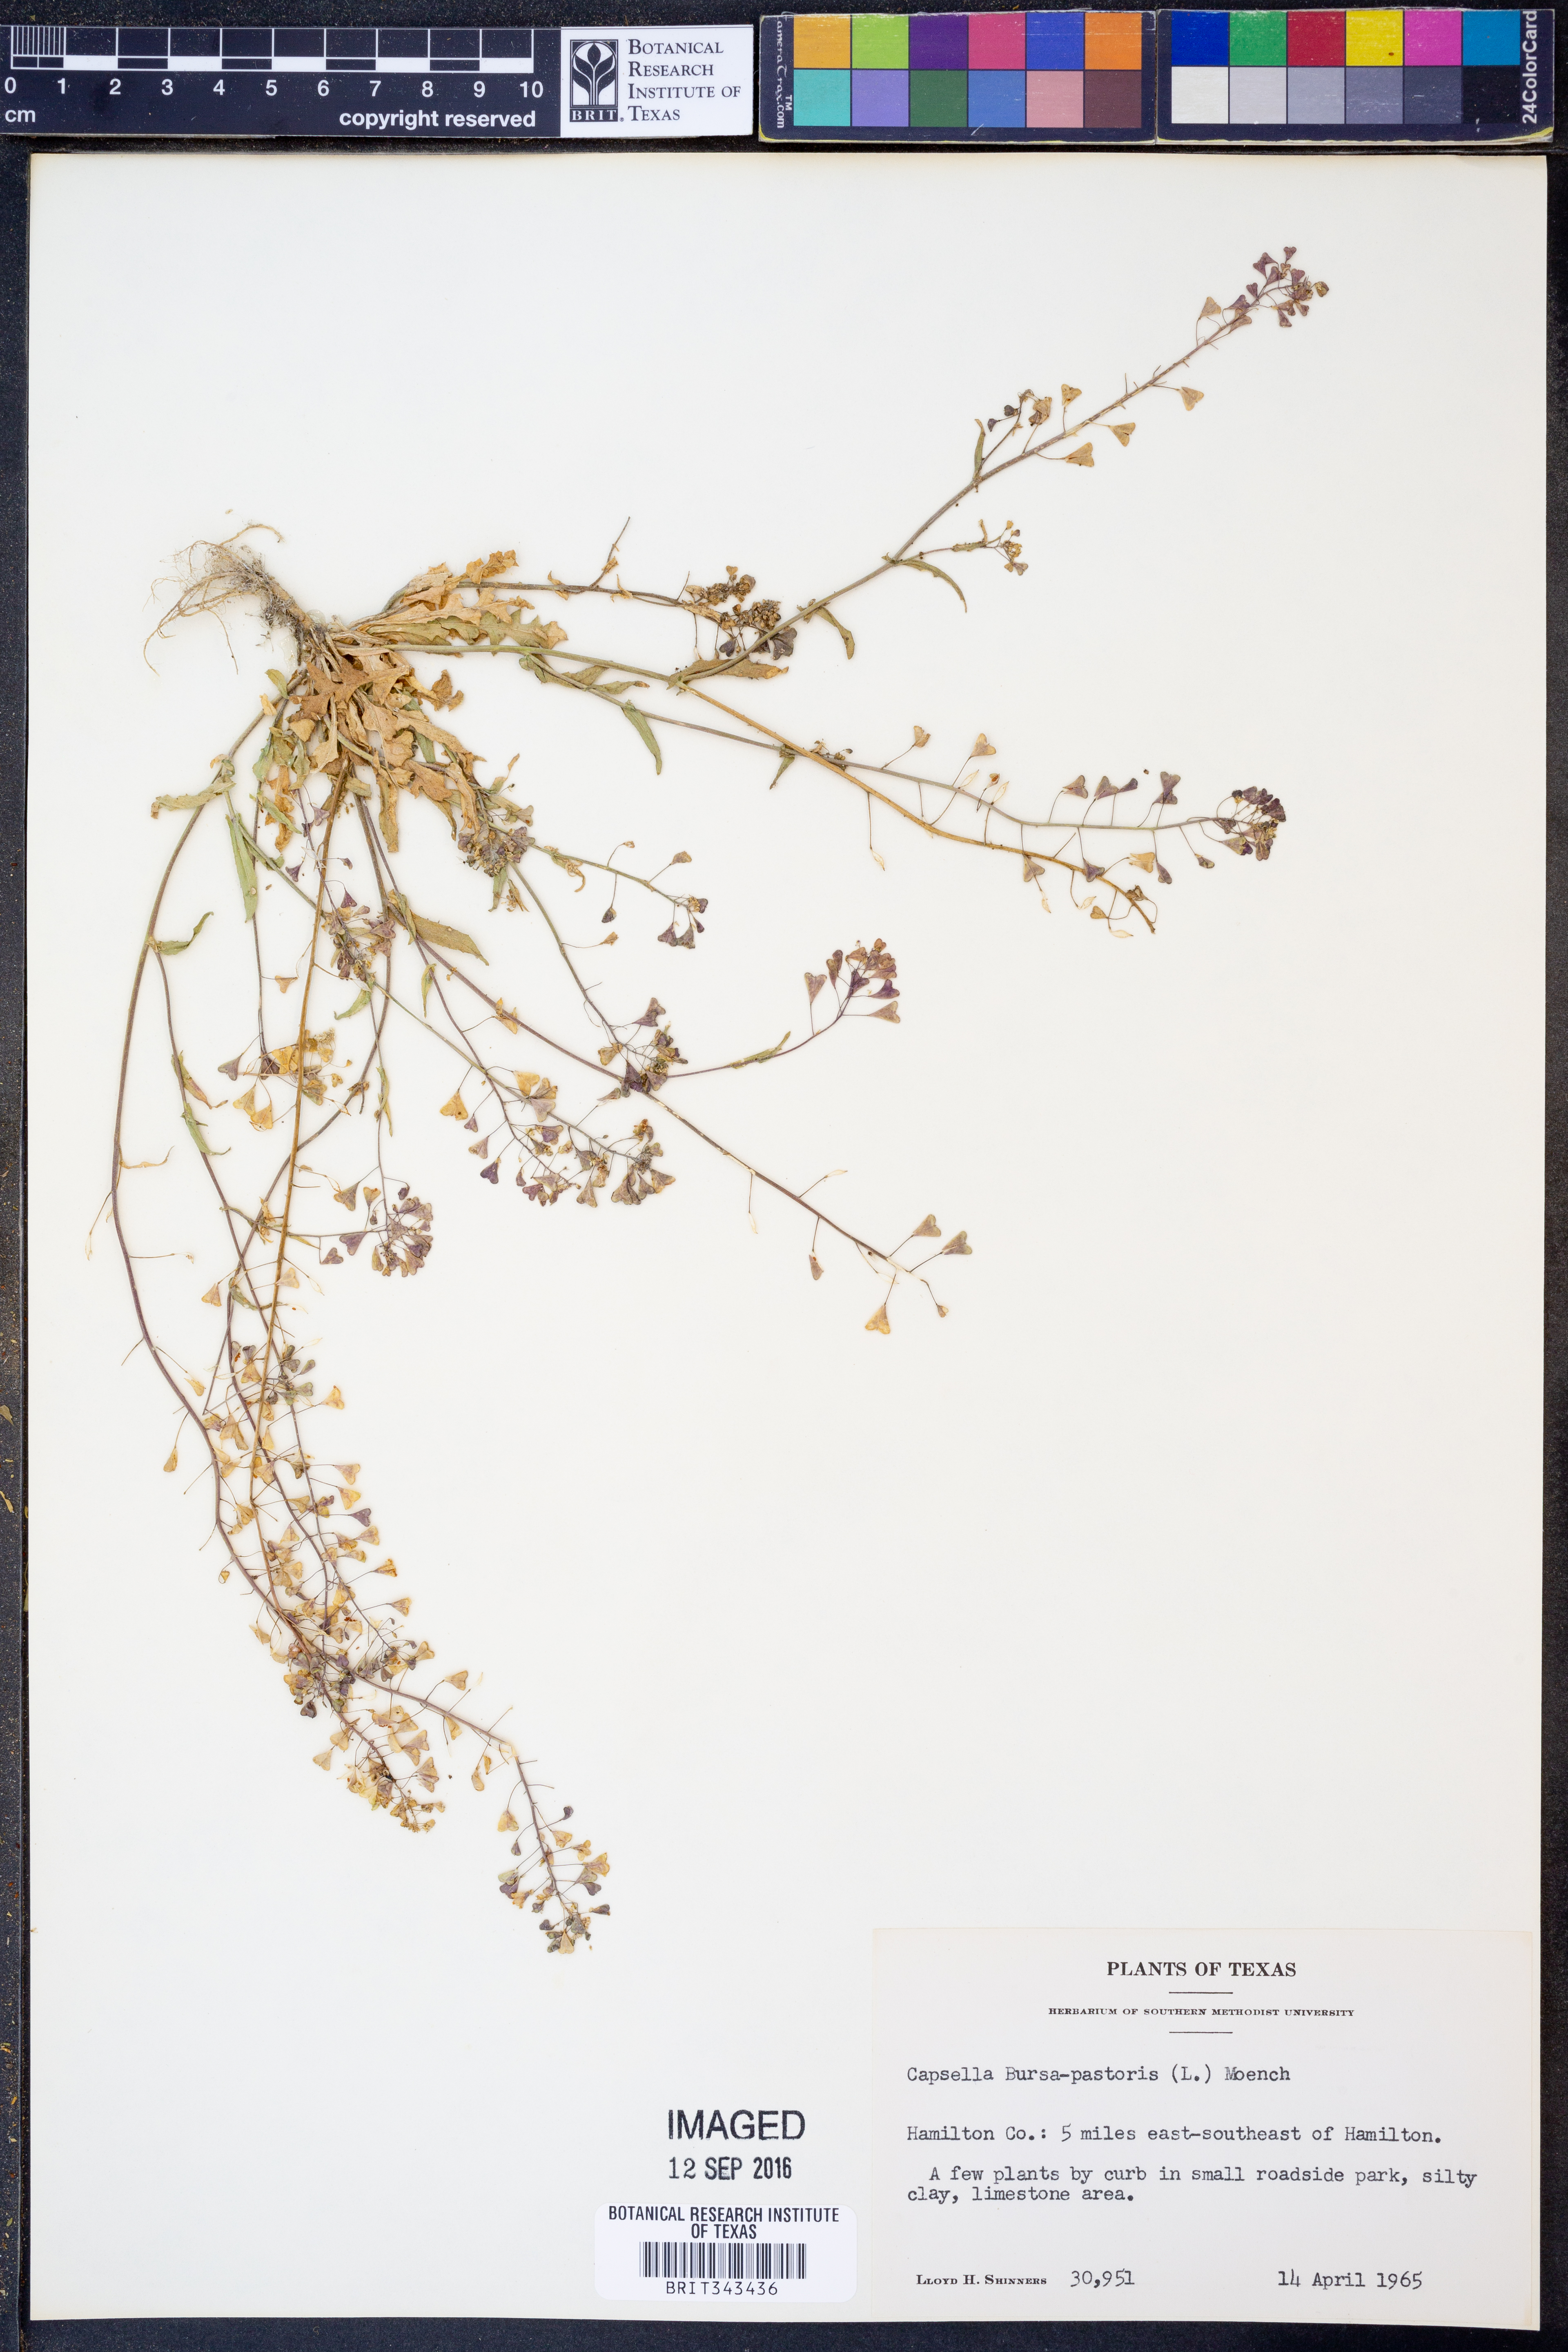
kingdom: Plantae
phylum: Tracheophyta
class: Magnoliopsida
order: Brassicales
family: Brassicaceae
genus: Capsella
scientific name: Capsella bursa-pastoris
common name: Shepherd's purse
